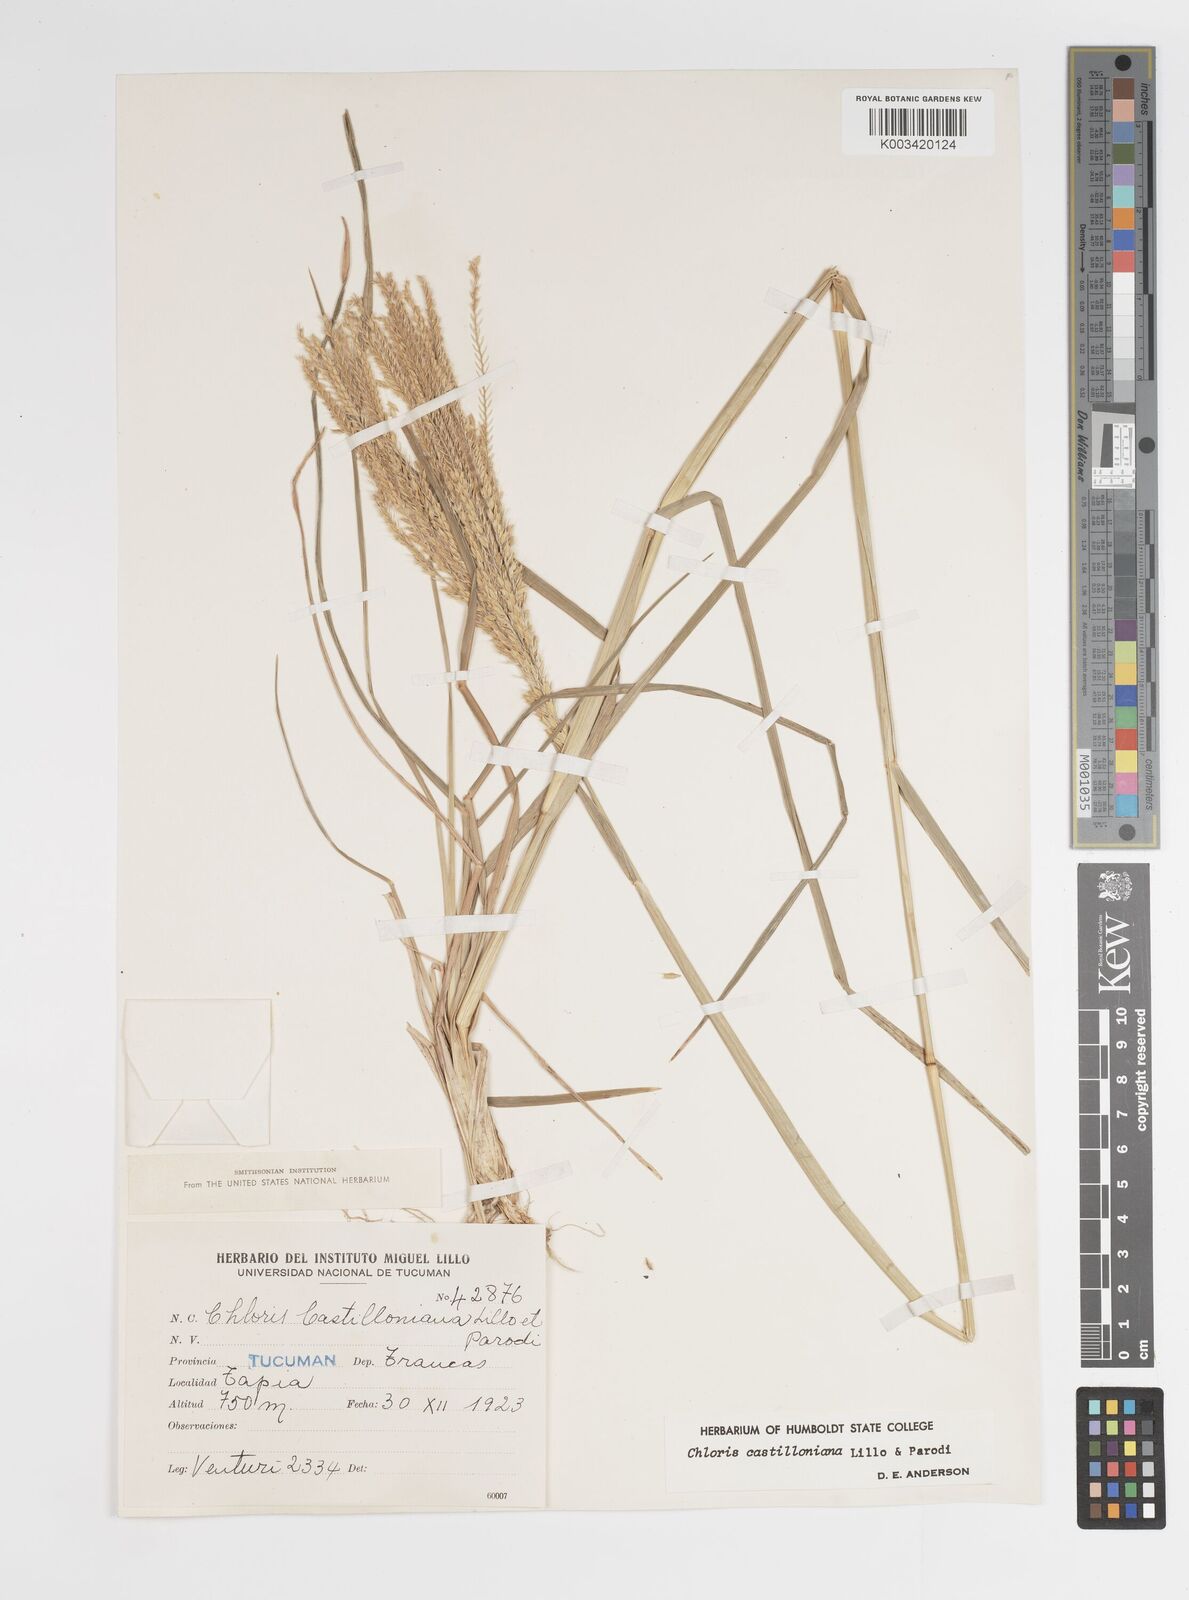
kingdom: Plantae
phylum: Tracheophyta
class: Liliopsida
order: Poales
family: Poaceae
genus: Chloris
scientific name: Chloris castilloniana
